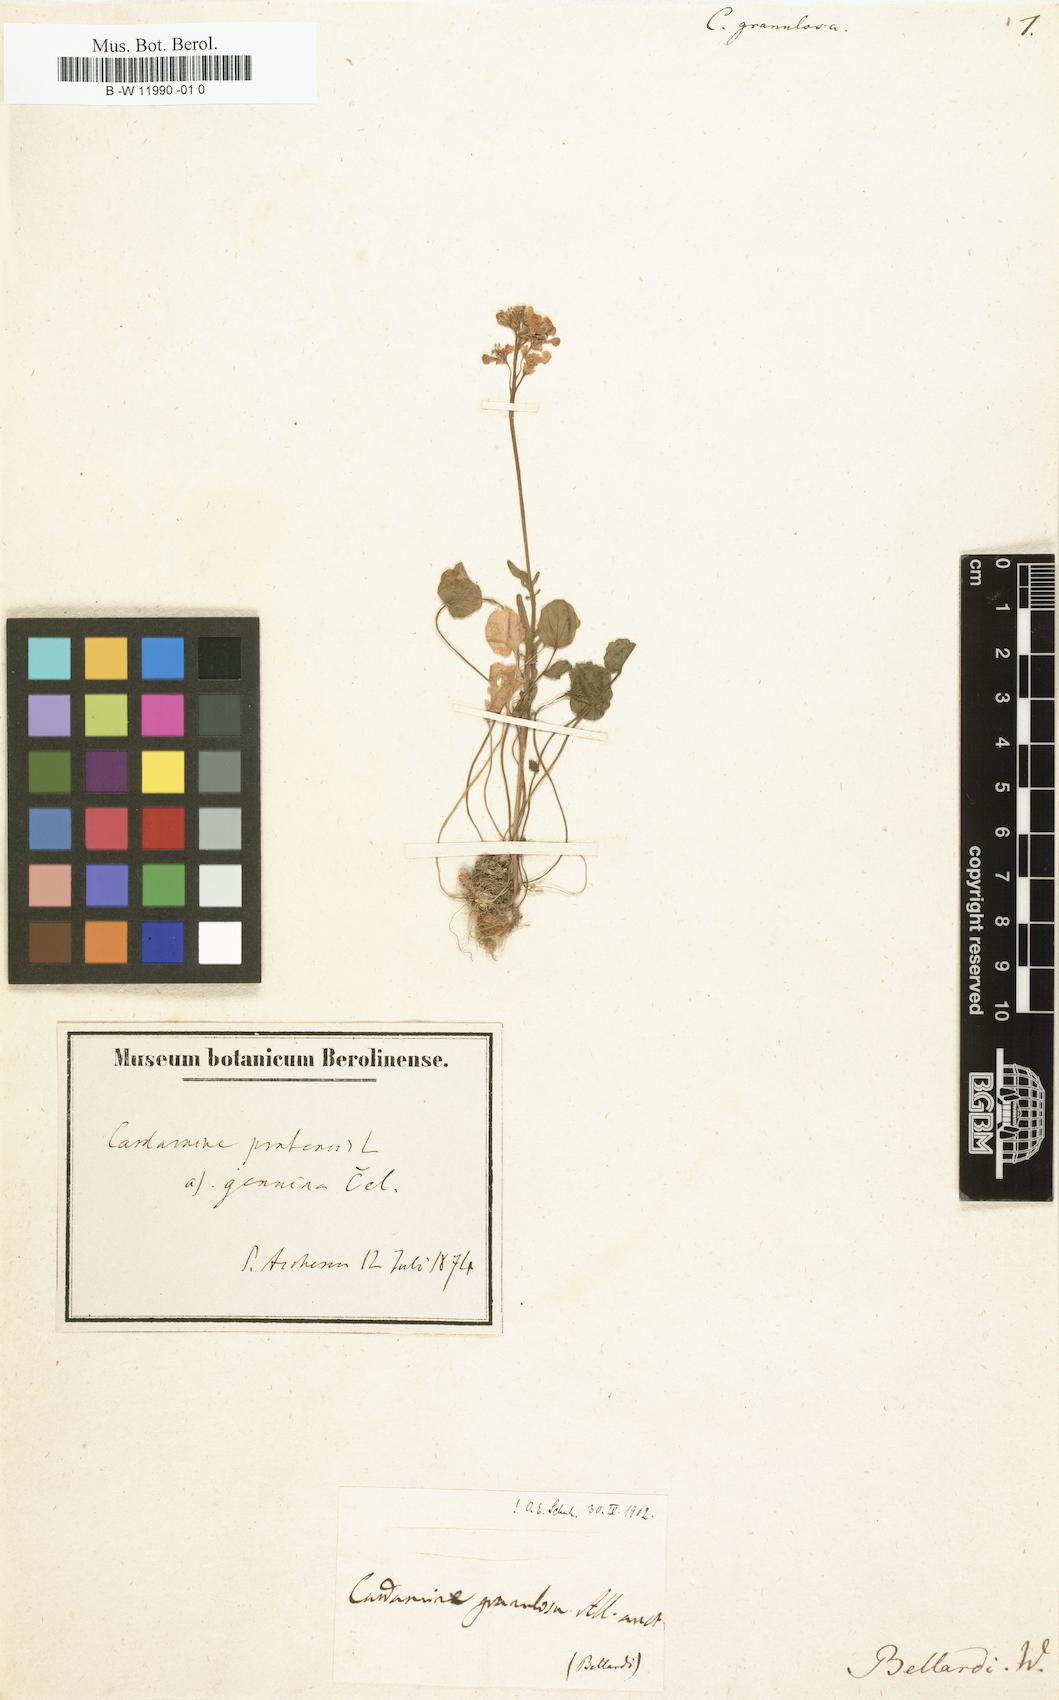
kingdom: Plantae
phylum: Tracheophyta
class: Magnoliopsida
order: Brassicales
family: Brassicaceae
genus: Cardamine
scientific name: Cardamine granulosa
